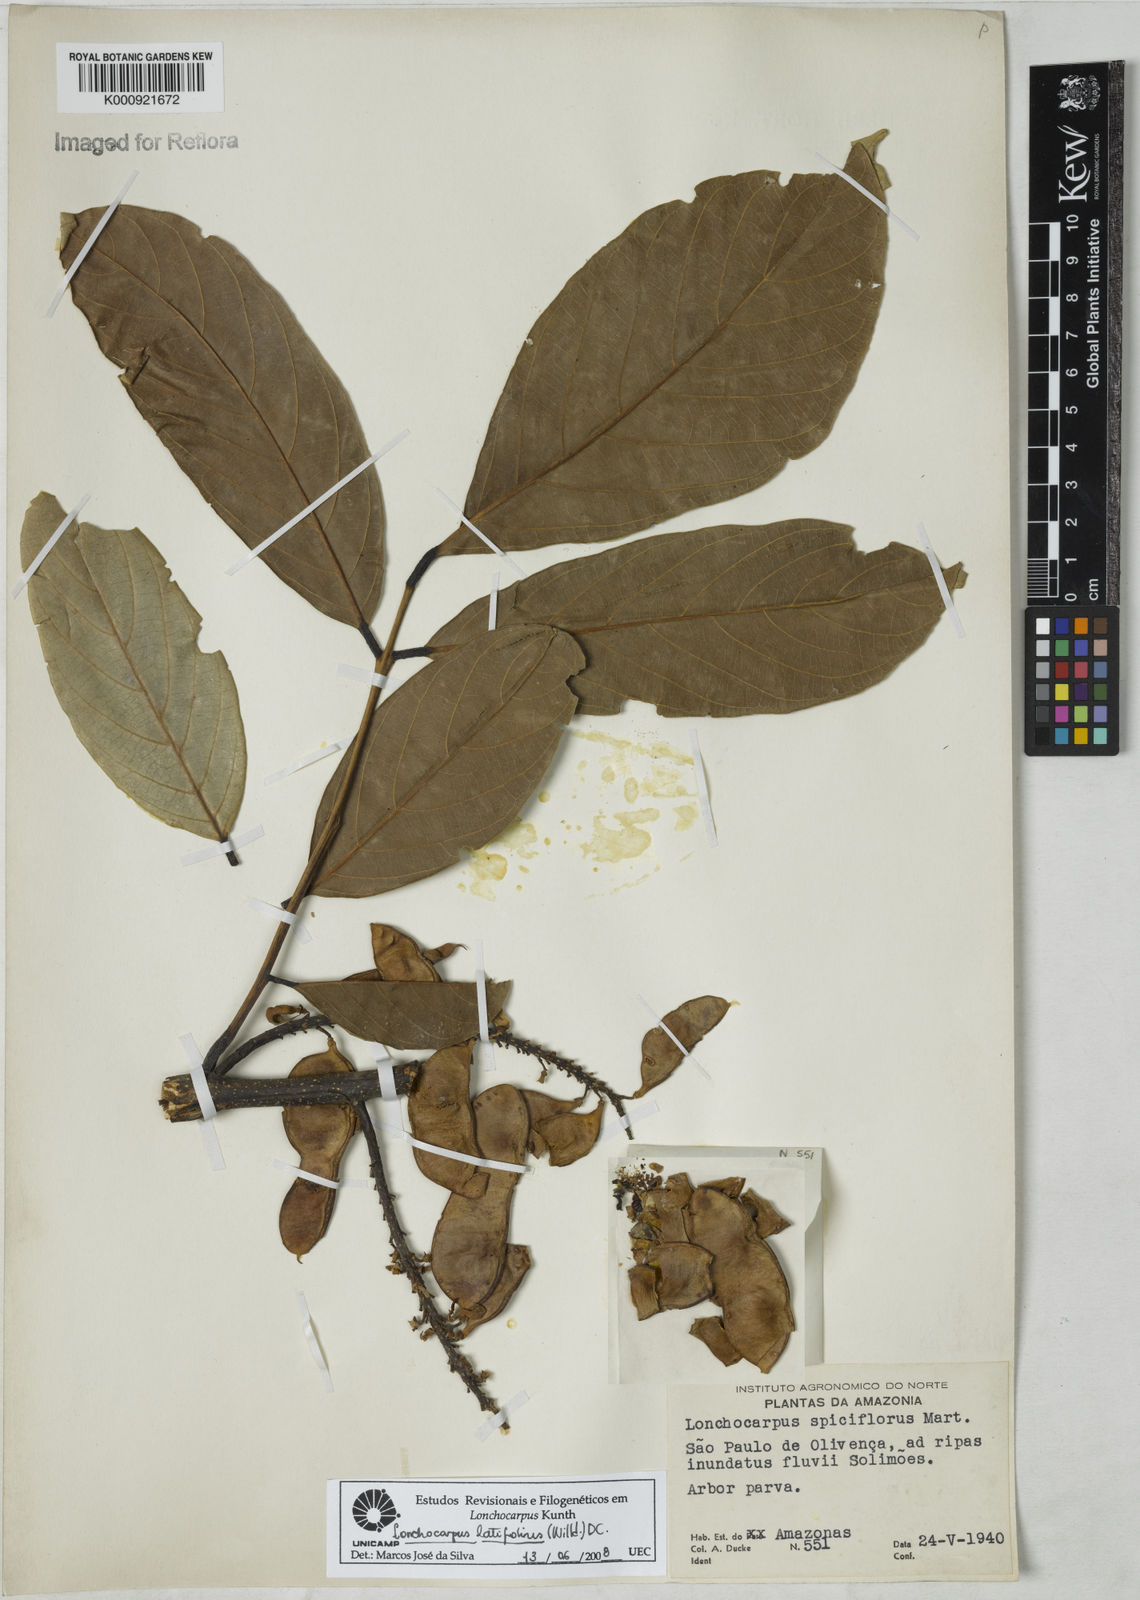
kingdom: Plantae
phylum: Tracheophyta
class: Magnoliopsida
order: Fabales
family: Fabaceae
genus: Lonchocarpus
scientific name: Lonchocarpus heptaphyllus
